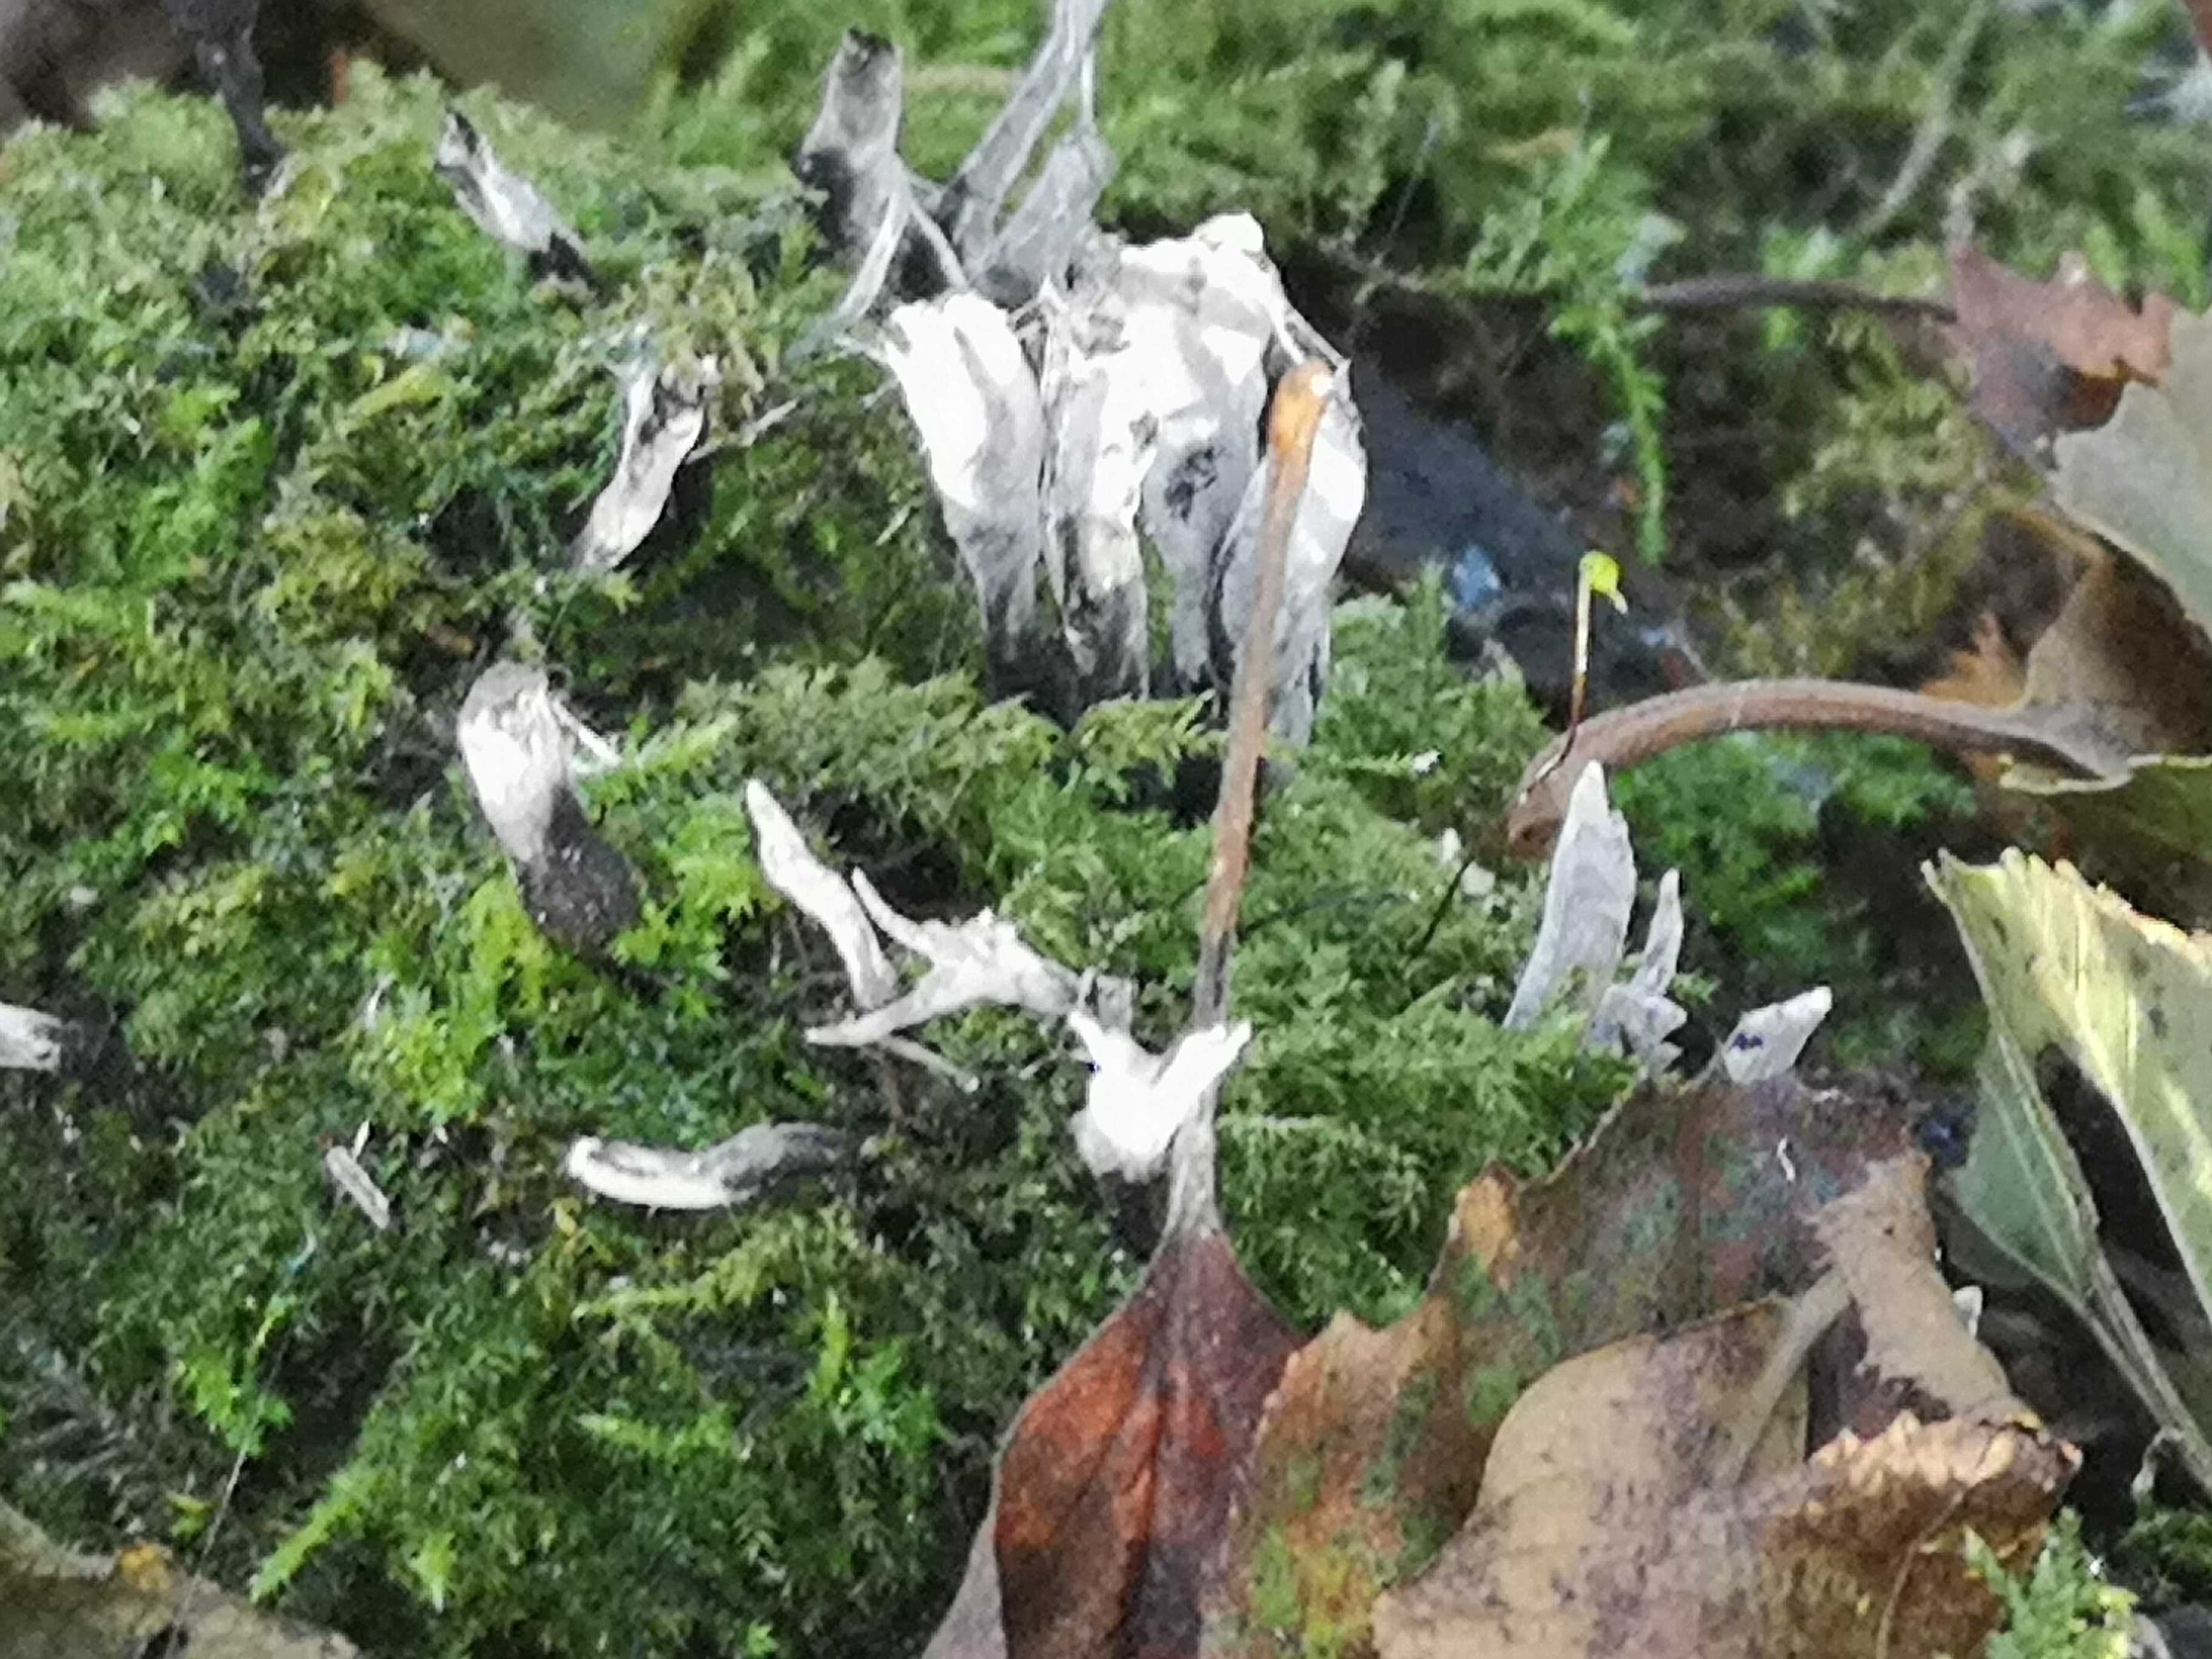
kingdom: Fungi
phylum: Ascomycota
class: Sordariomycetes
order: Xylariales
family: Xylariaceae
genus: Xylaria
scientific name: Xylaria hypoxylon
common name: grenet stødsvamp
